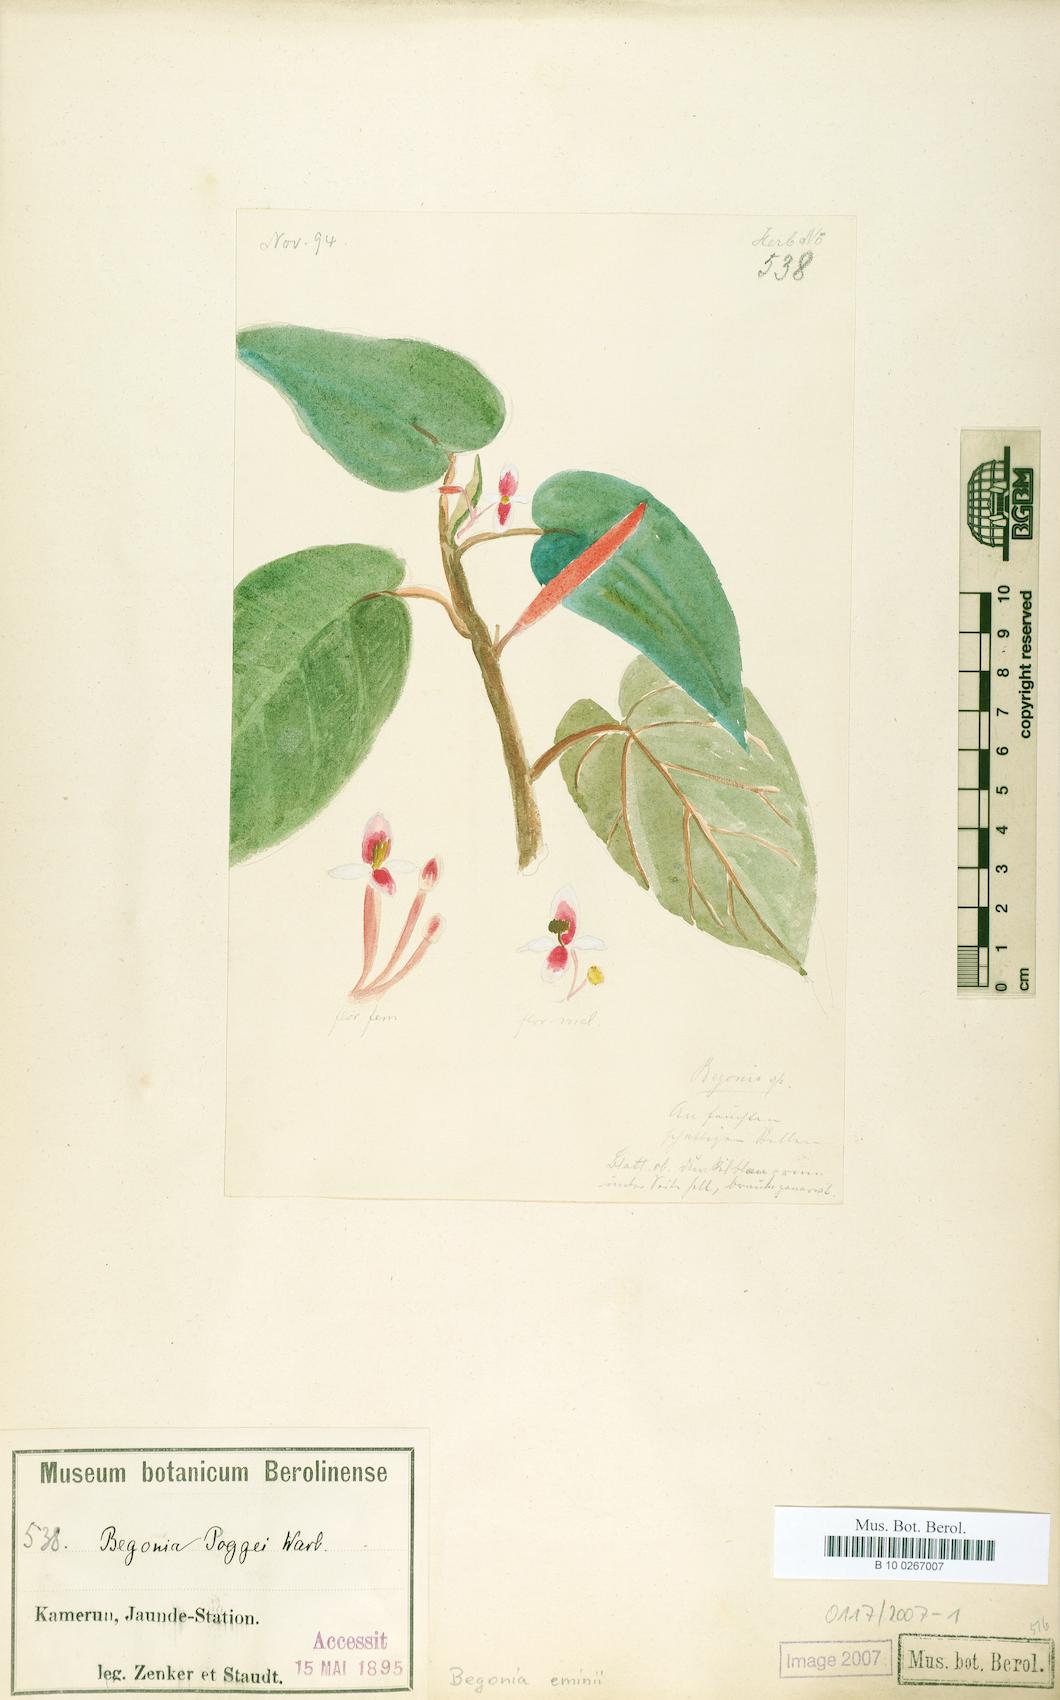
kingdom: Plantae
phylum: Tracheophyta
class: Magnoliopsida
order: Cucurbitales
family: Begoniaceae
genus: Begonia
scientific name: Begonia eminii
